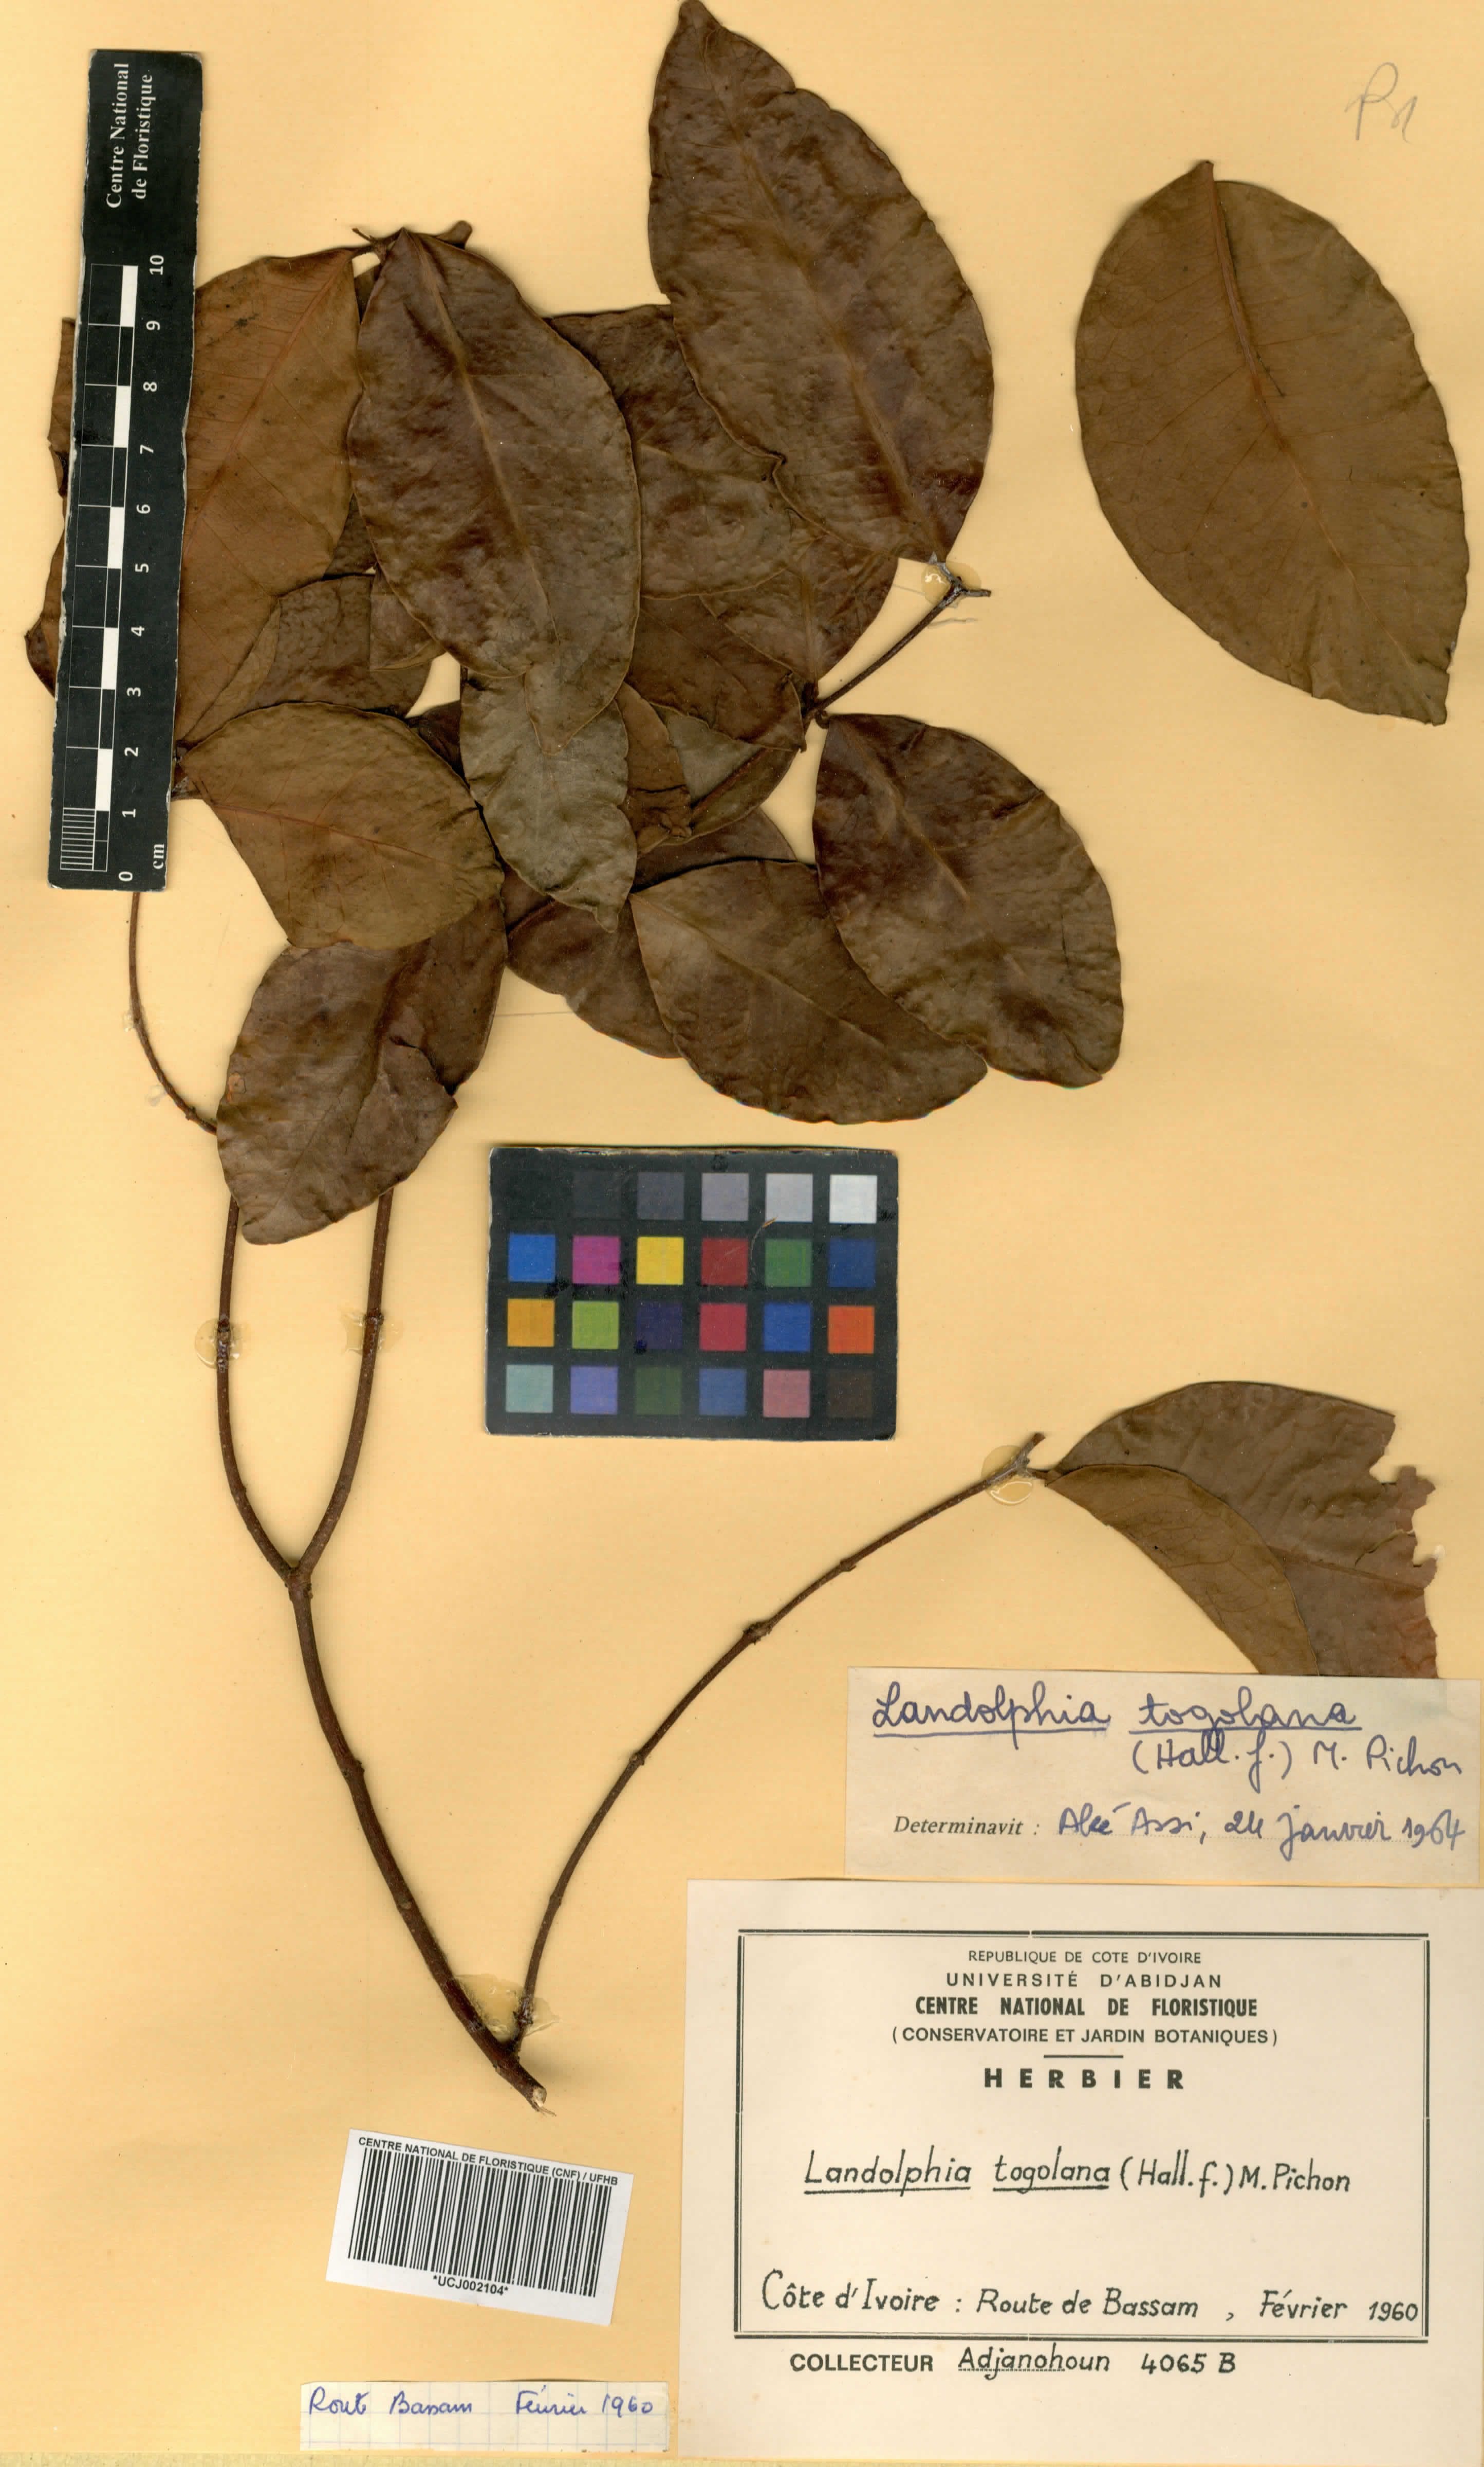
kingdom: Plantae
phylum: Tracheophyta
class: Magnoliopsida
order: Gentianales
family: Apocynaceae
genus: Landolphia
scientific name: Landolphia togolana
